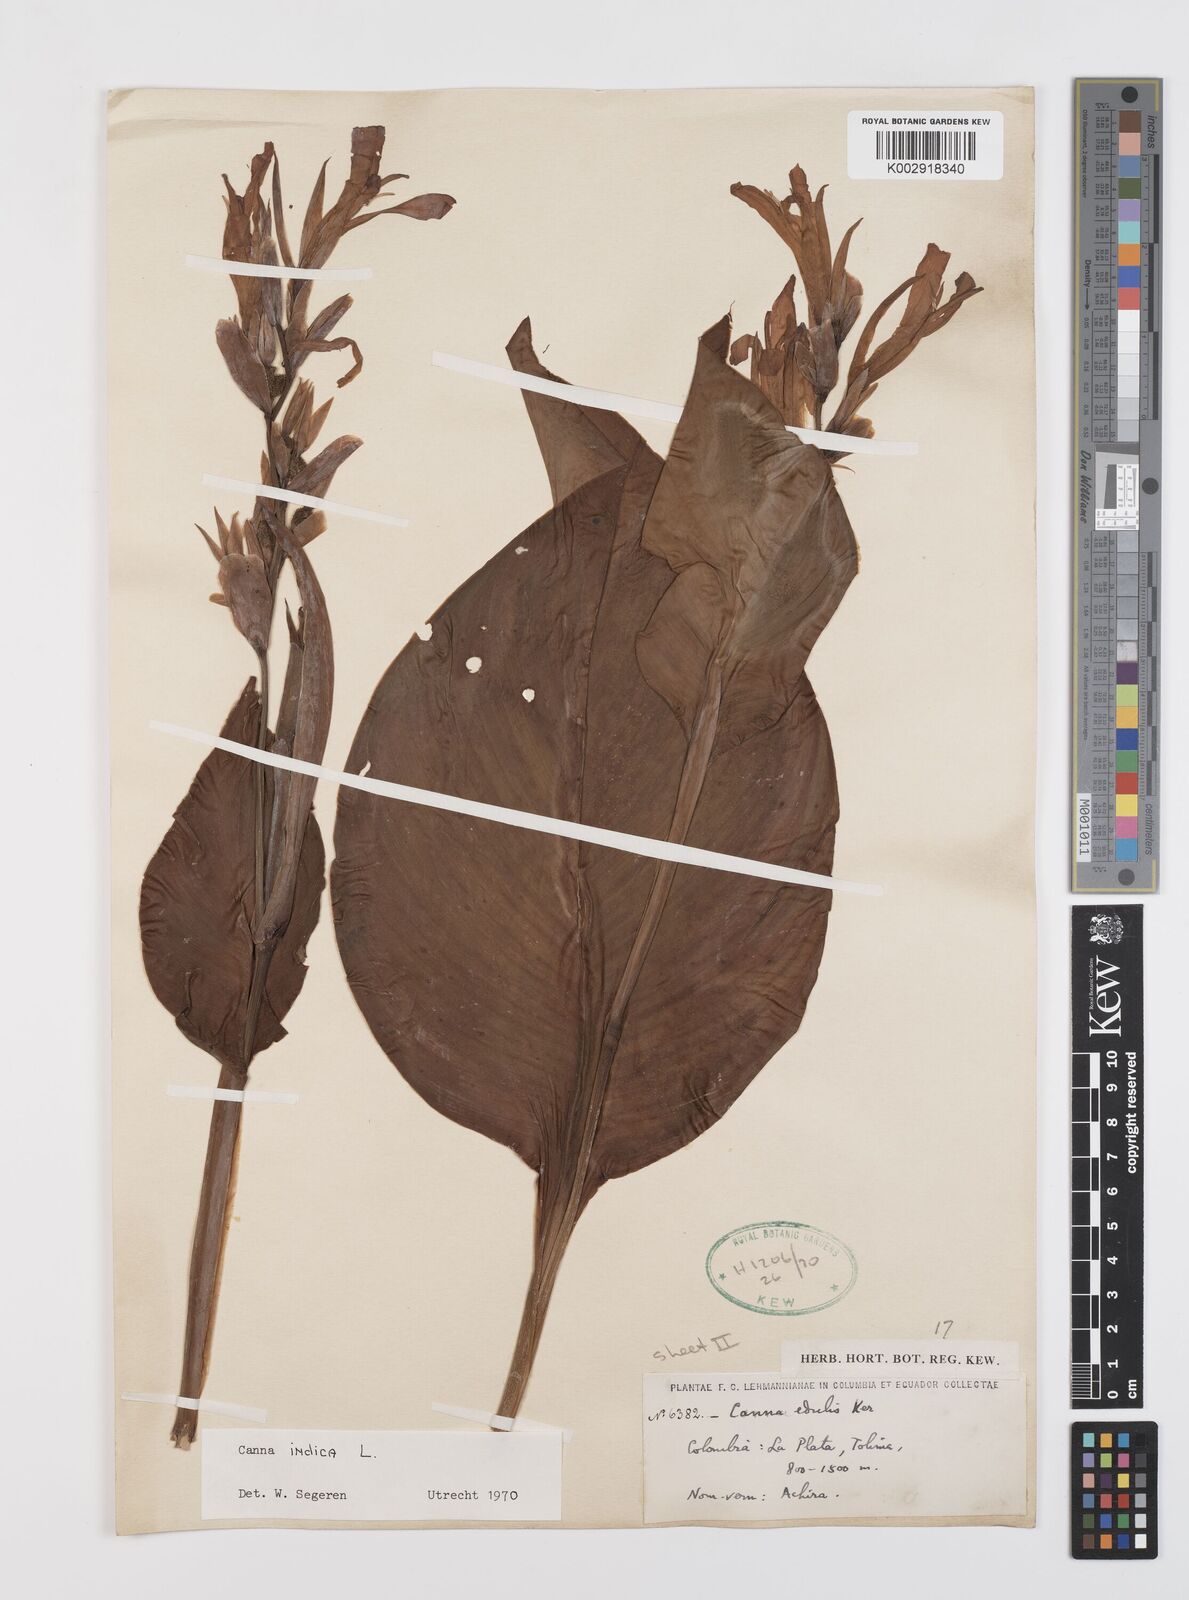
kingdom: Plantae
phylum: Tracheophyta
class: Liliopsida
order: Zingiberales
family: Cannaceae
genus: Canna
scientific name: Canna indica
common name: Indian shot
